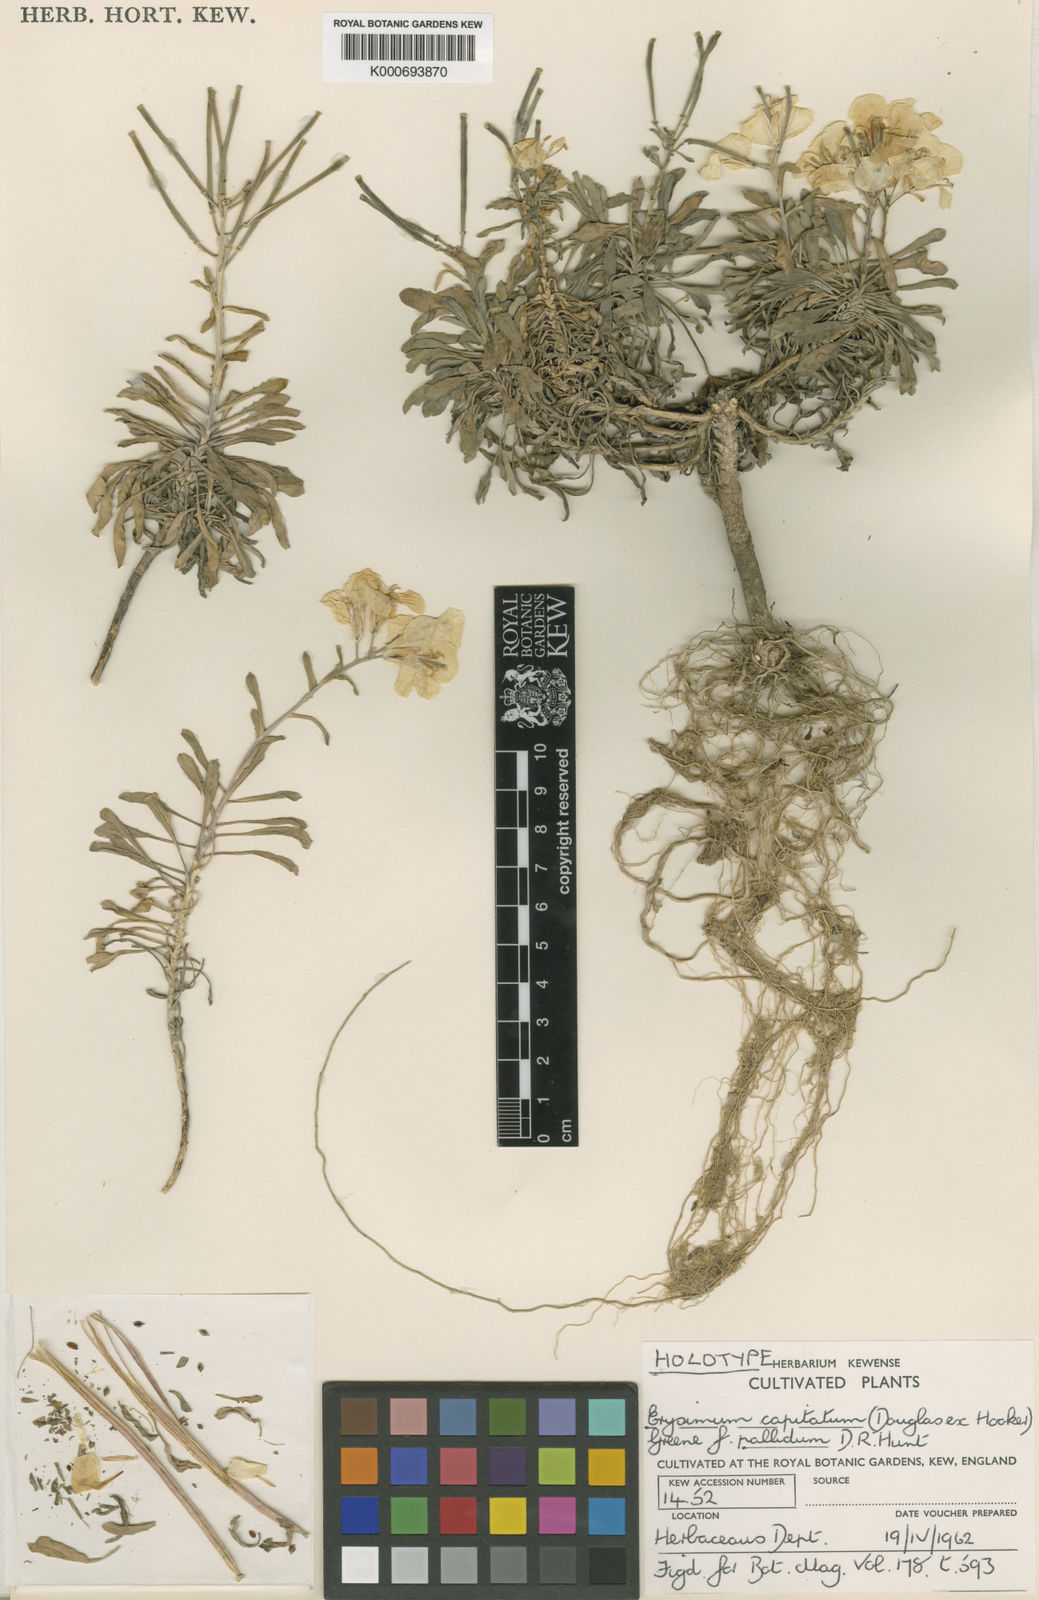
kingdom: Plantae
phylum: Tracheophyta
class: Magnoliopsida
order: Brassicales
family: Brassicaceae
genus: Erysimum
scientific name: Erysimum capitatum
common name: Western wallflower
